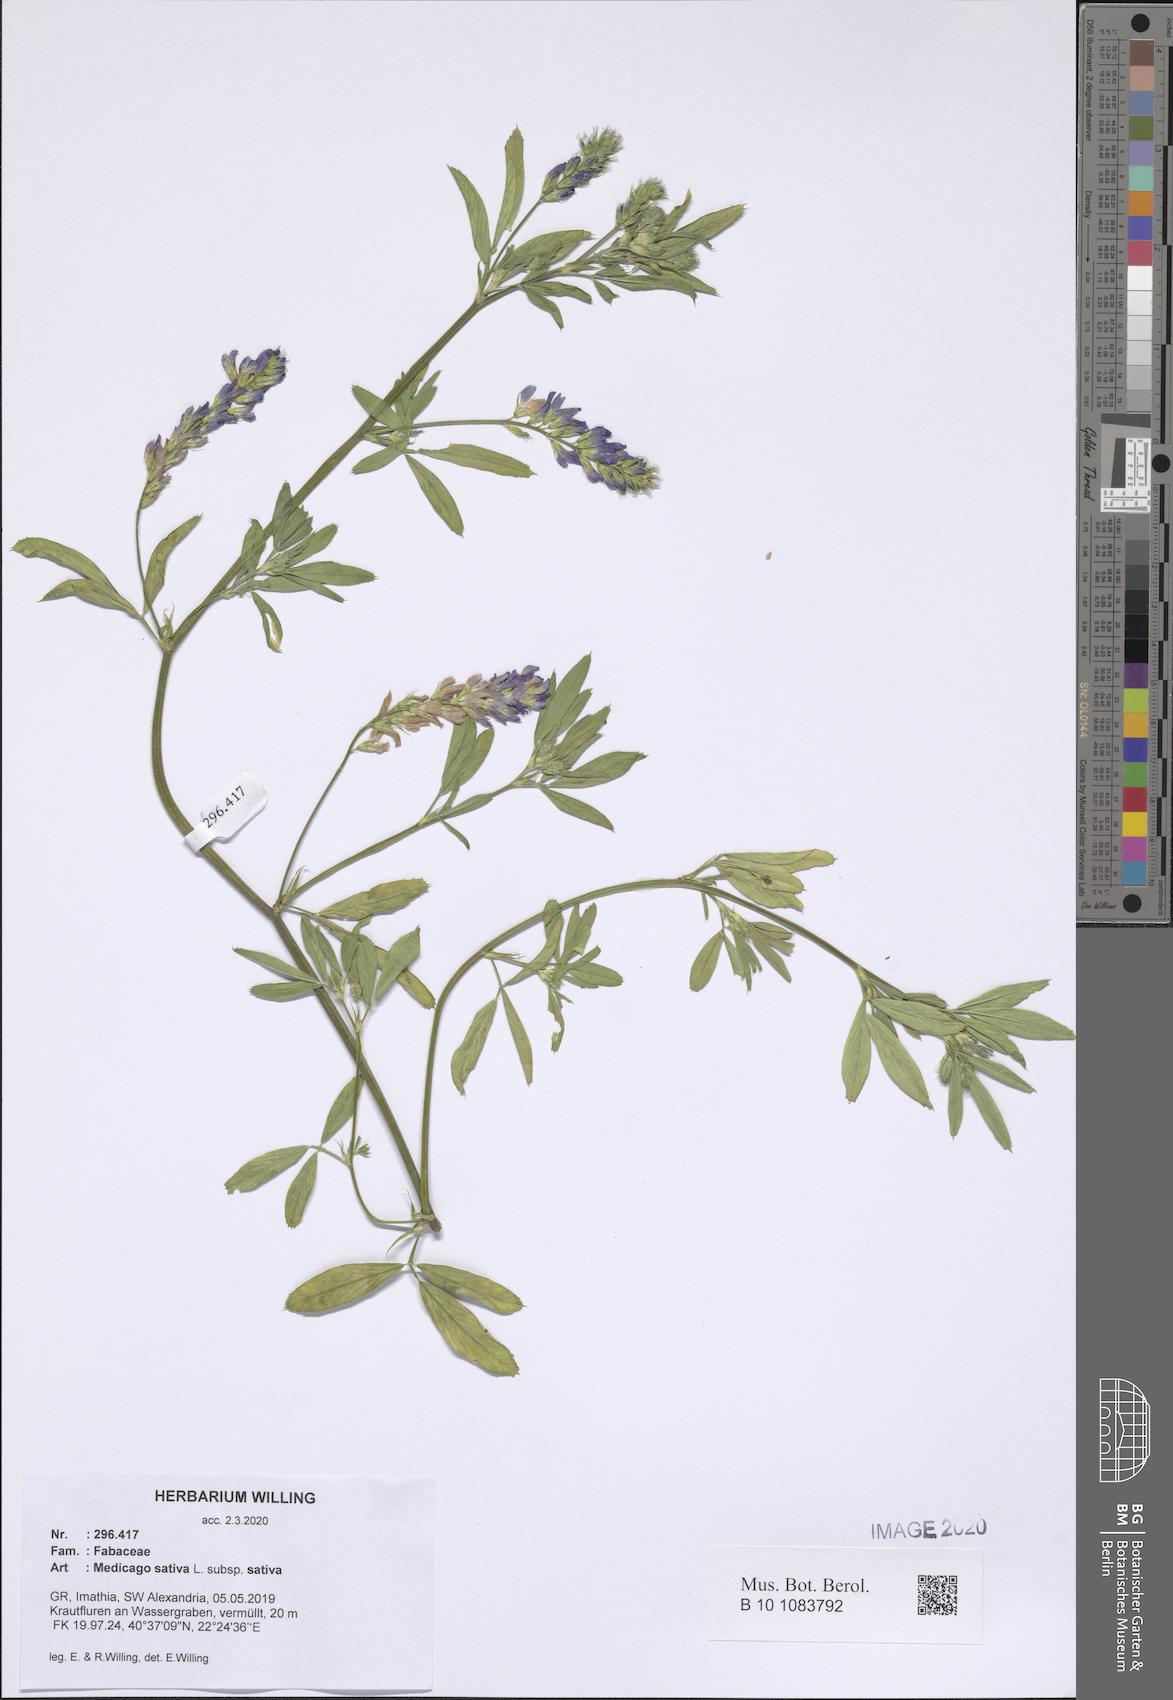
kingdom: Plantae
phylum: Tracheophyta
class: Magnoliopsida
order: Fabales
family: Fabaceae
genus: Medicago
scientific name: Medicago sativa
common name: Alfalfa
